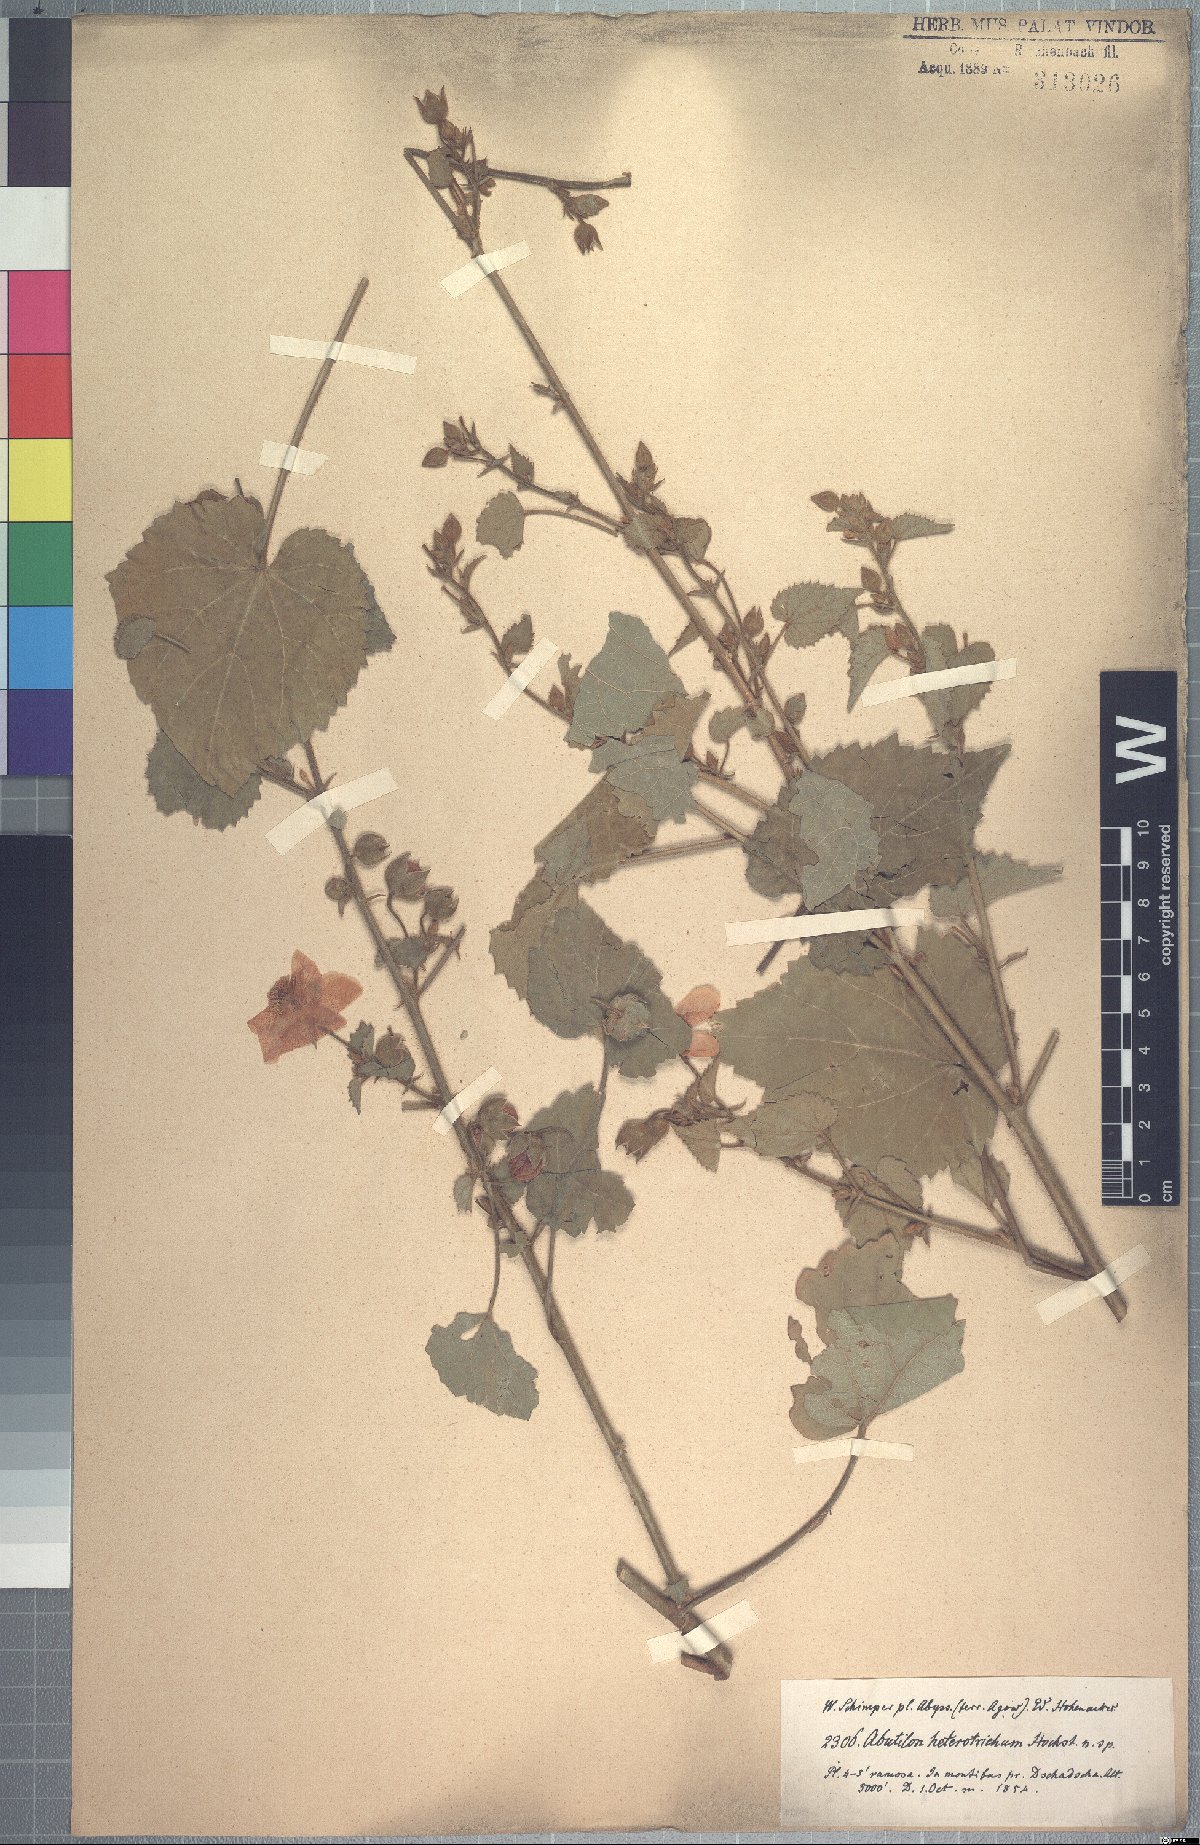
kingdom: Plantae
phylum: Tracheophyta
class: Magnoliopsida
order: Malvales
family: Malvaceae
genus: Abutilon
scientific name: Abutilon hirtum
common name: Florida keys indian mallow
